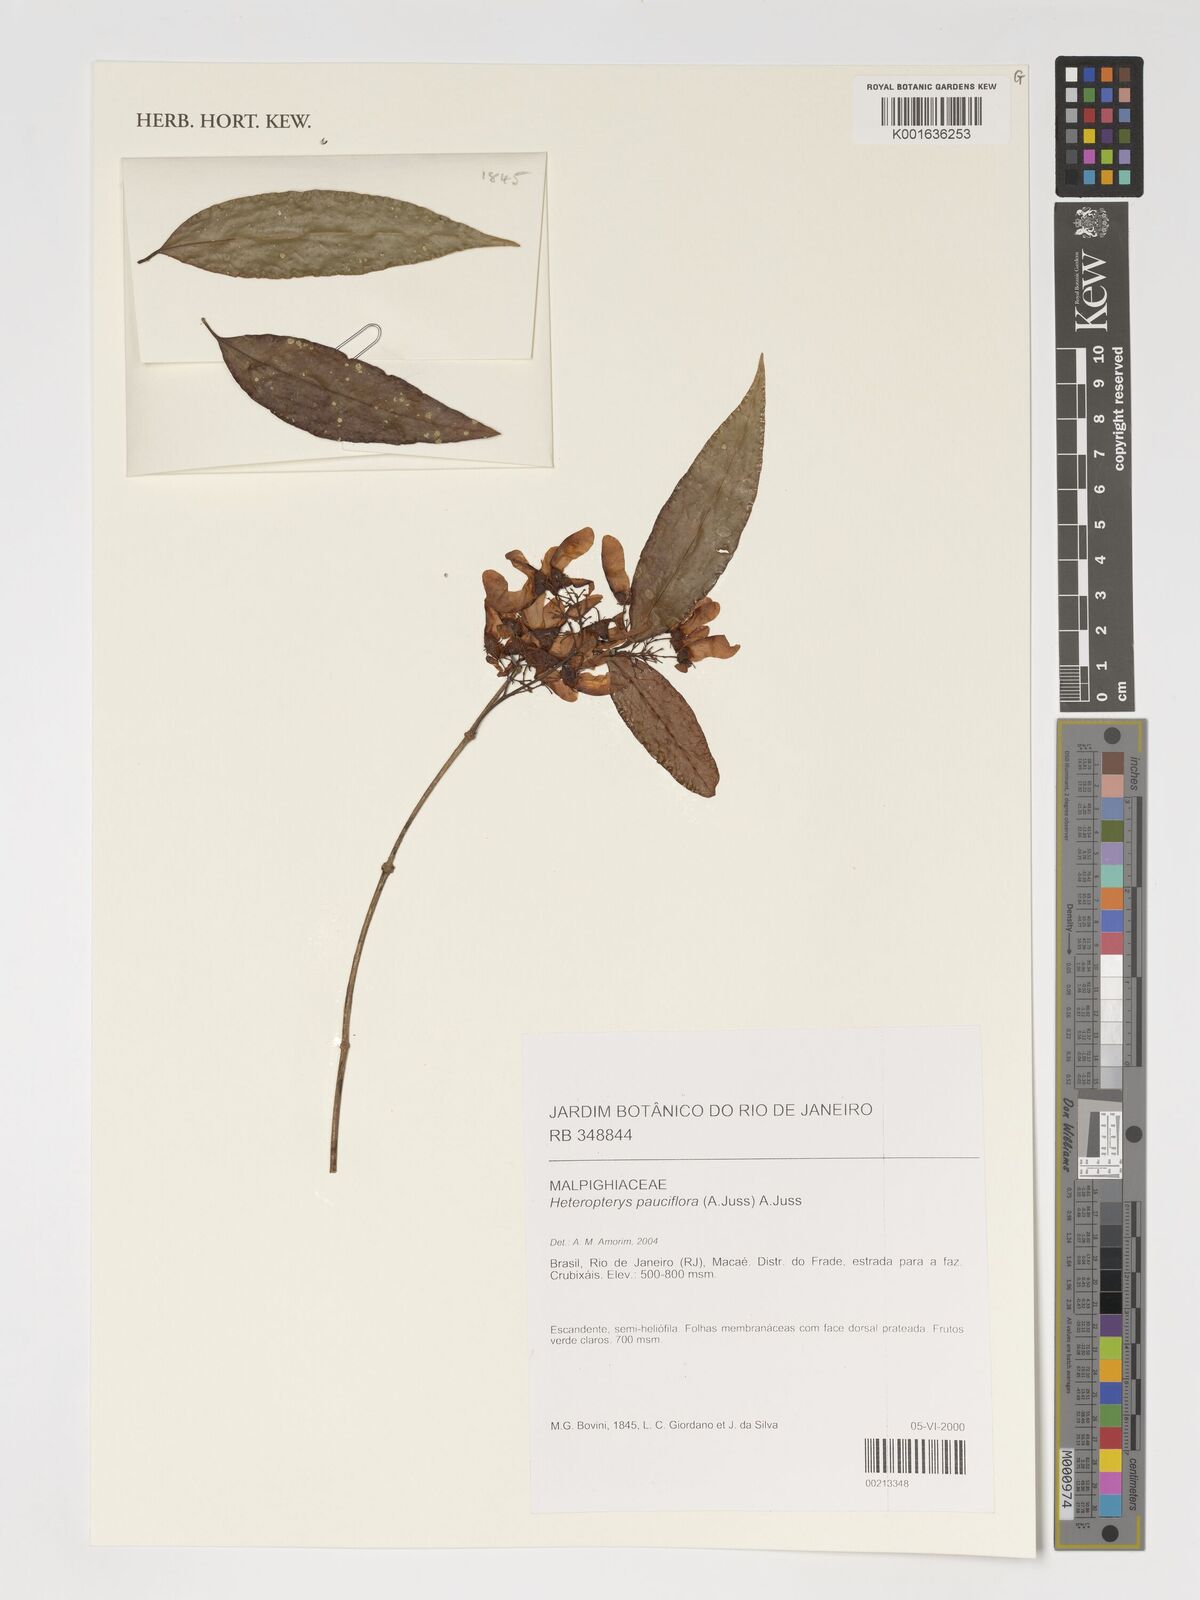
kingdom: Plantae
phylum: Tracheophyta
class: Magnoliopsida
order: Malpighiales
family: Malpighiaceae
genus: Heteropterys
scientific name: Heteropterys pauciflora
